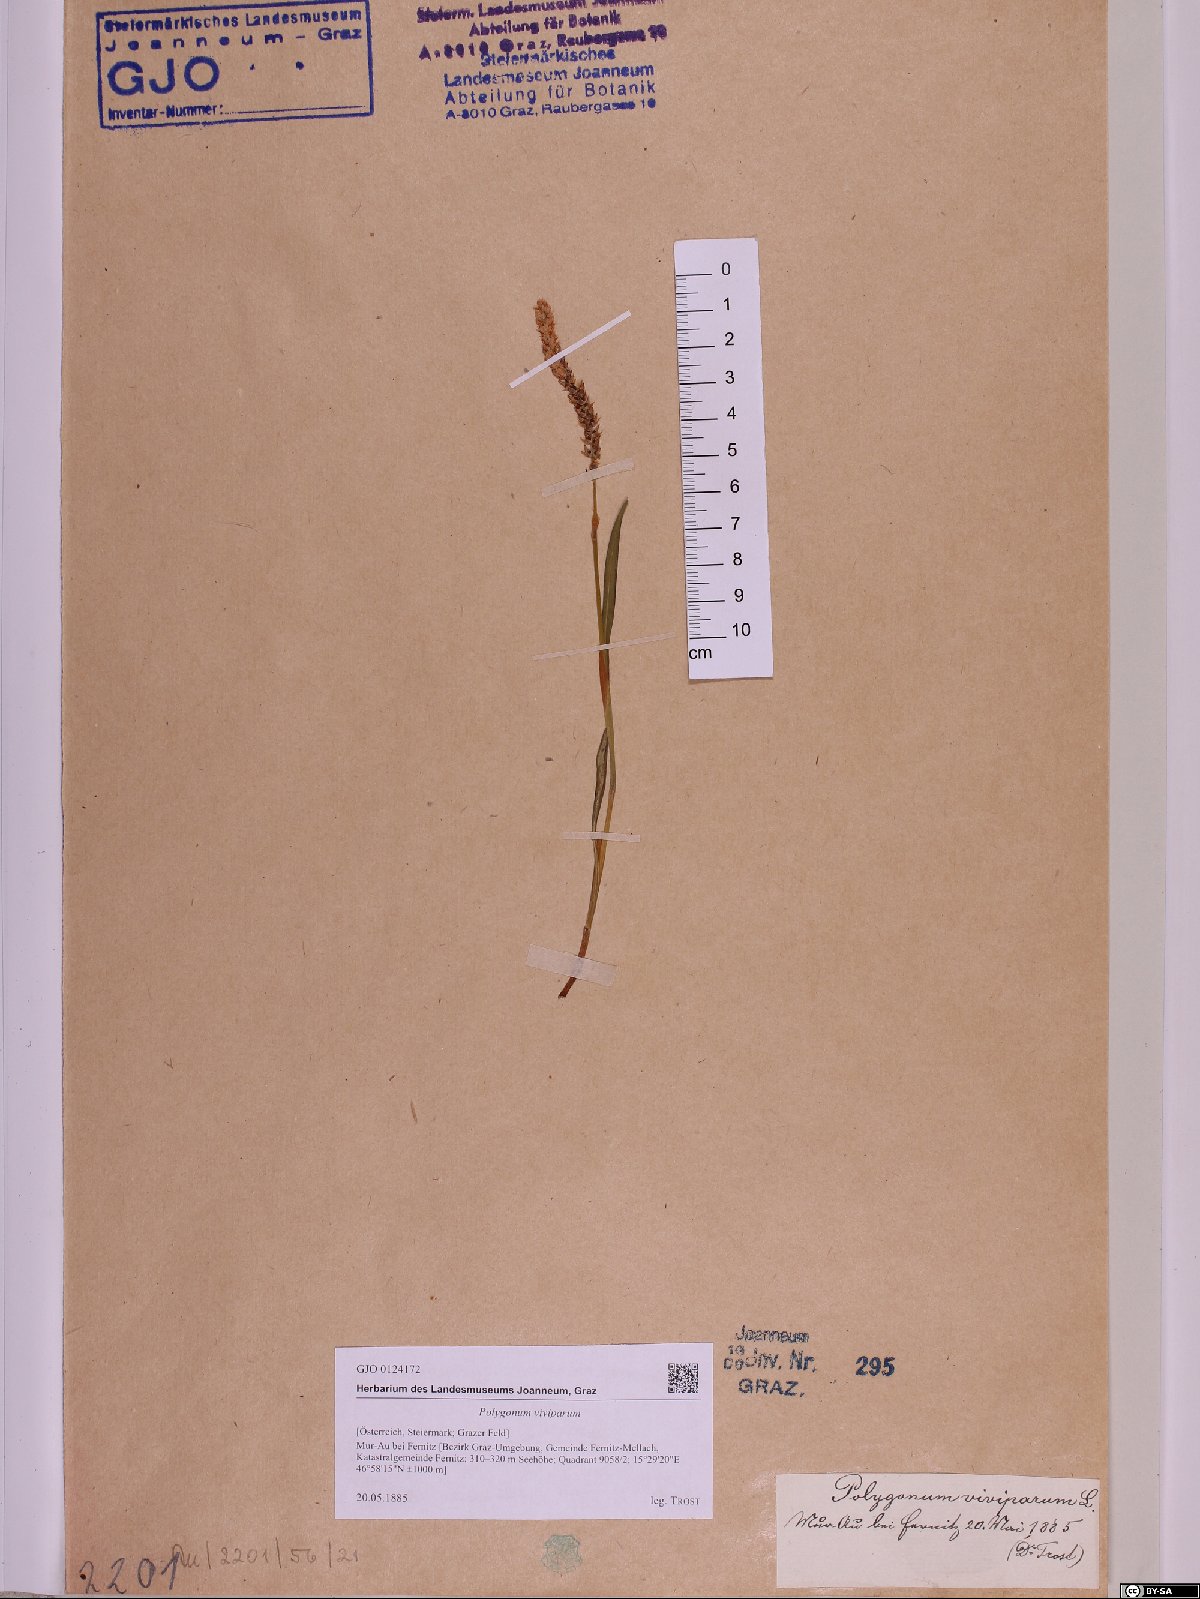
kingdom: Plantae
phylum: Tracheophyta
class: Magnoliopsida
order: Caryophyllales
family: Polygonaceae
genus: Bistorta
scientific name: Bistorta vivipara
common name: Alpine bistort
